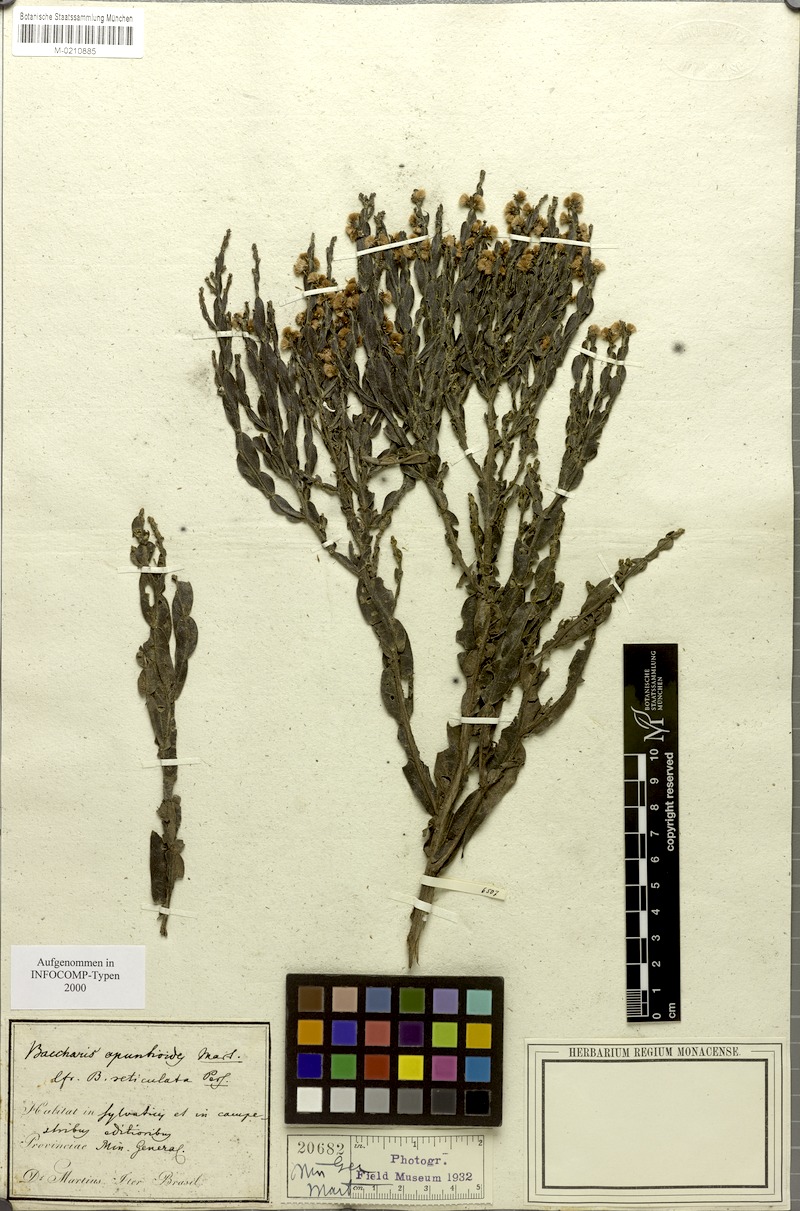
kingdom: Plantae
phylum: Tracheophyta
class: Magnoliopsida
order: Asterales
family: Asteraceae
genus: Baccharis
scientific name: Baccharis opuntioides
